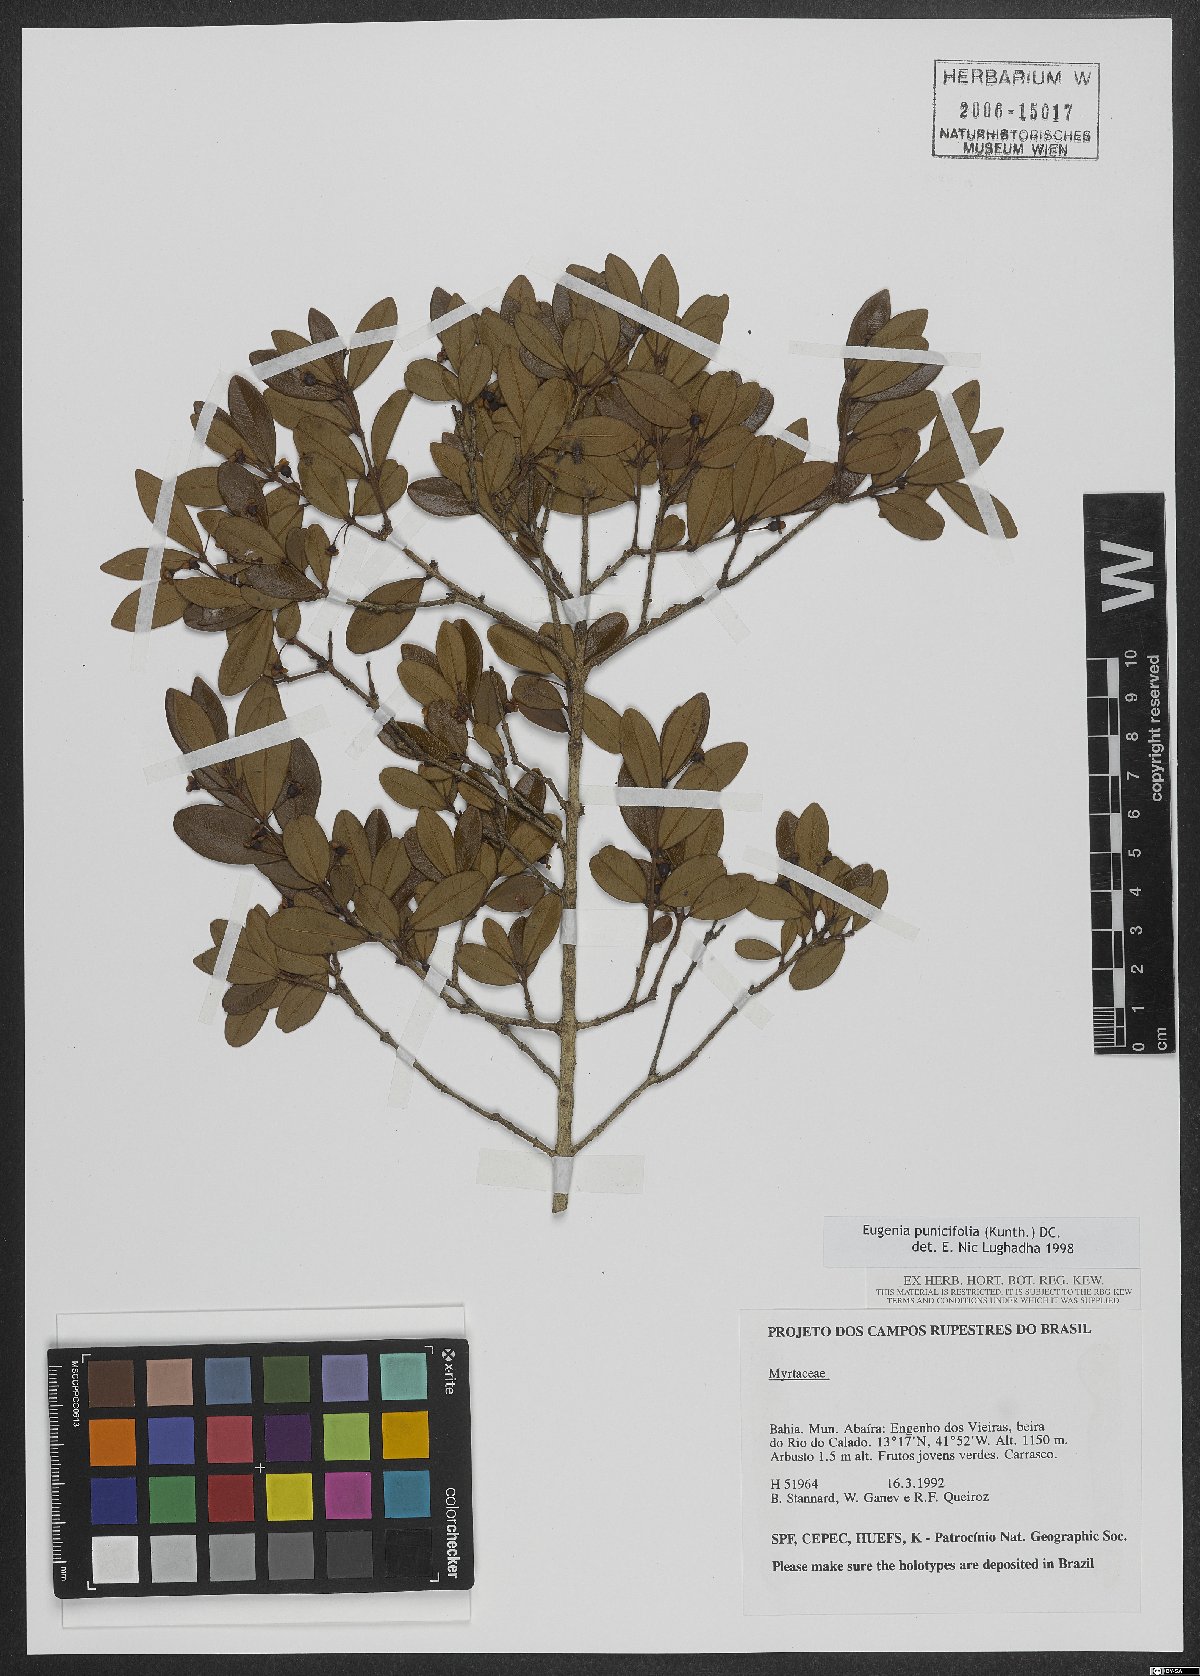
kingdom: Plantae
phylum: Tracheophyta
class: Magnoliopsida
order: Myrtales
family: Myrtaceae
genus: Eugenia
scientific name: Eugenia punicifolia
